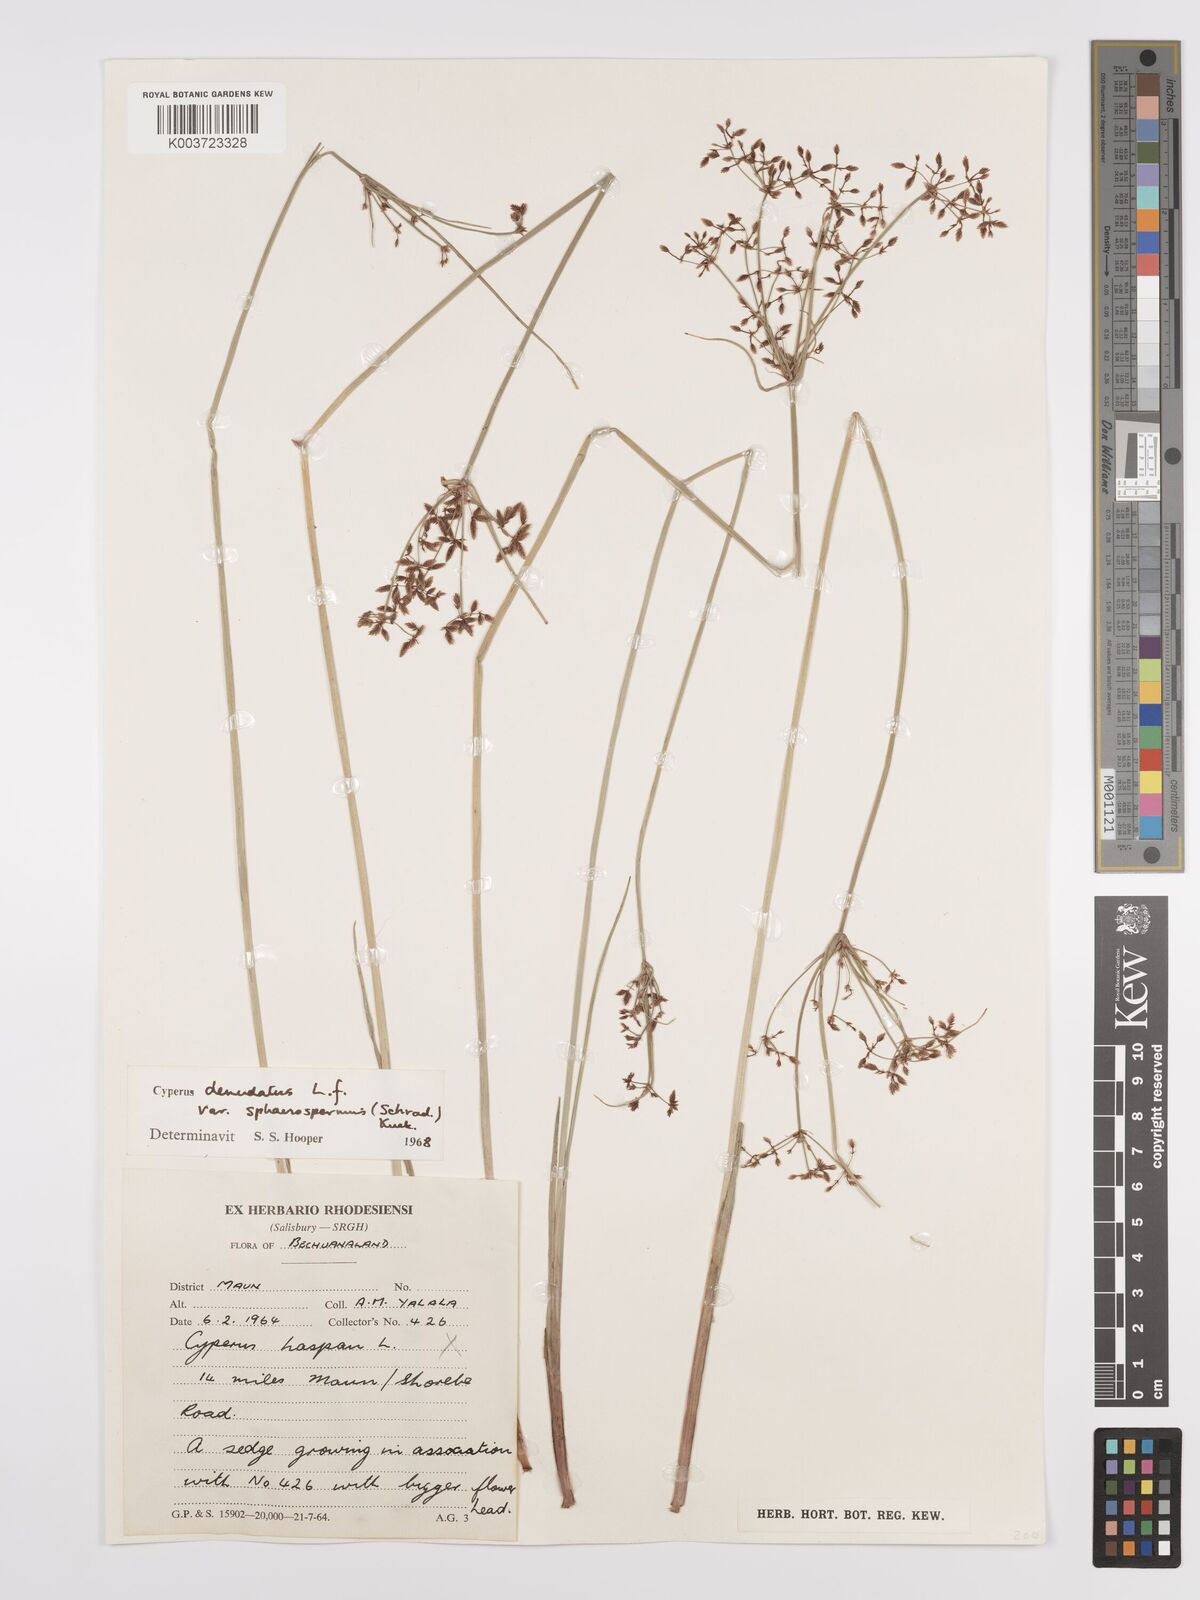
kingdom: Plantae
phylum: Tracheophyta
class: Liliopsida
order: Poales
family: Cyperaceae
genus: Cyperus
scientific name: Cyperus denudatus
